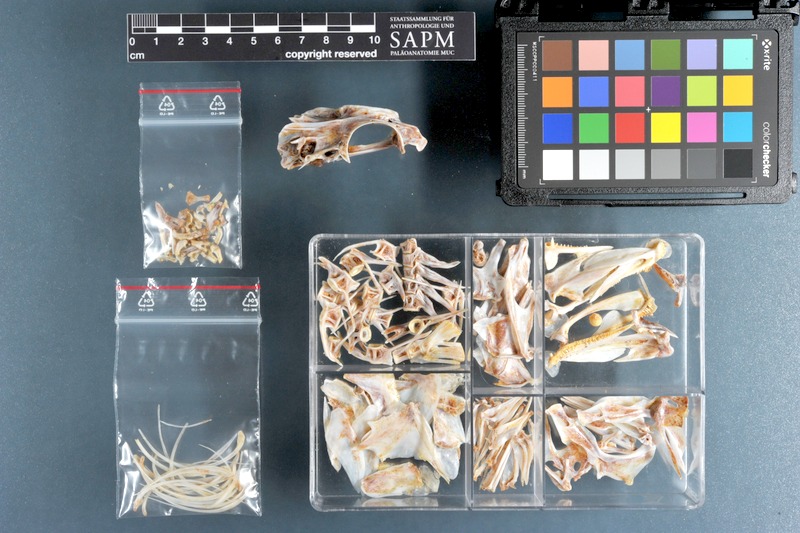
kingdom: Animalia
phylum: Chordata
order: Perciformes
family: Serranidae
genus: Epinephelus
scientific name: Epinephelus fasciatus
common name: Blacktip grouper
